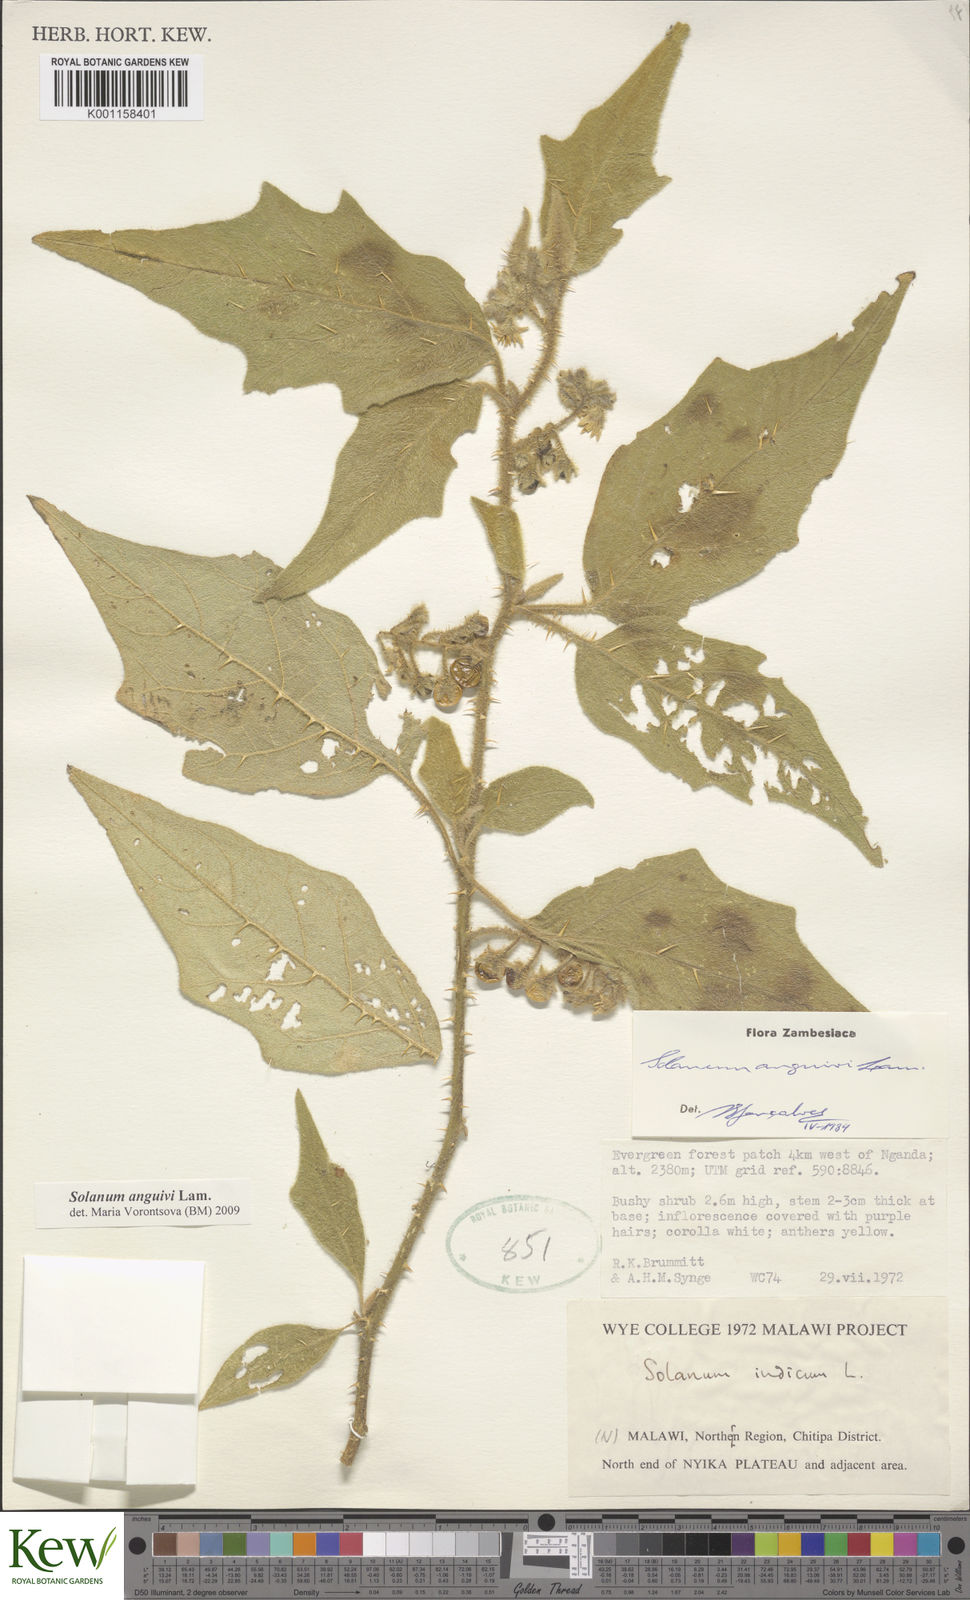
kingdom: Plantae
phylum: Tracheophyta
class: Magnoliopsida
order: Solanales
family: Solanaceae
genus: Solanum
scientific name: Solanum anguivi
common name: Forest bitterberry
